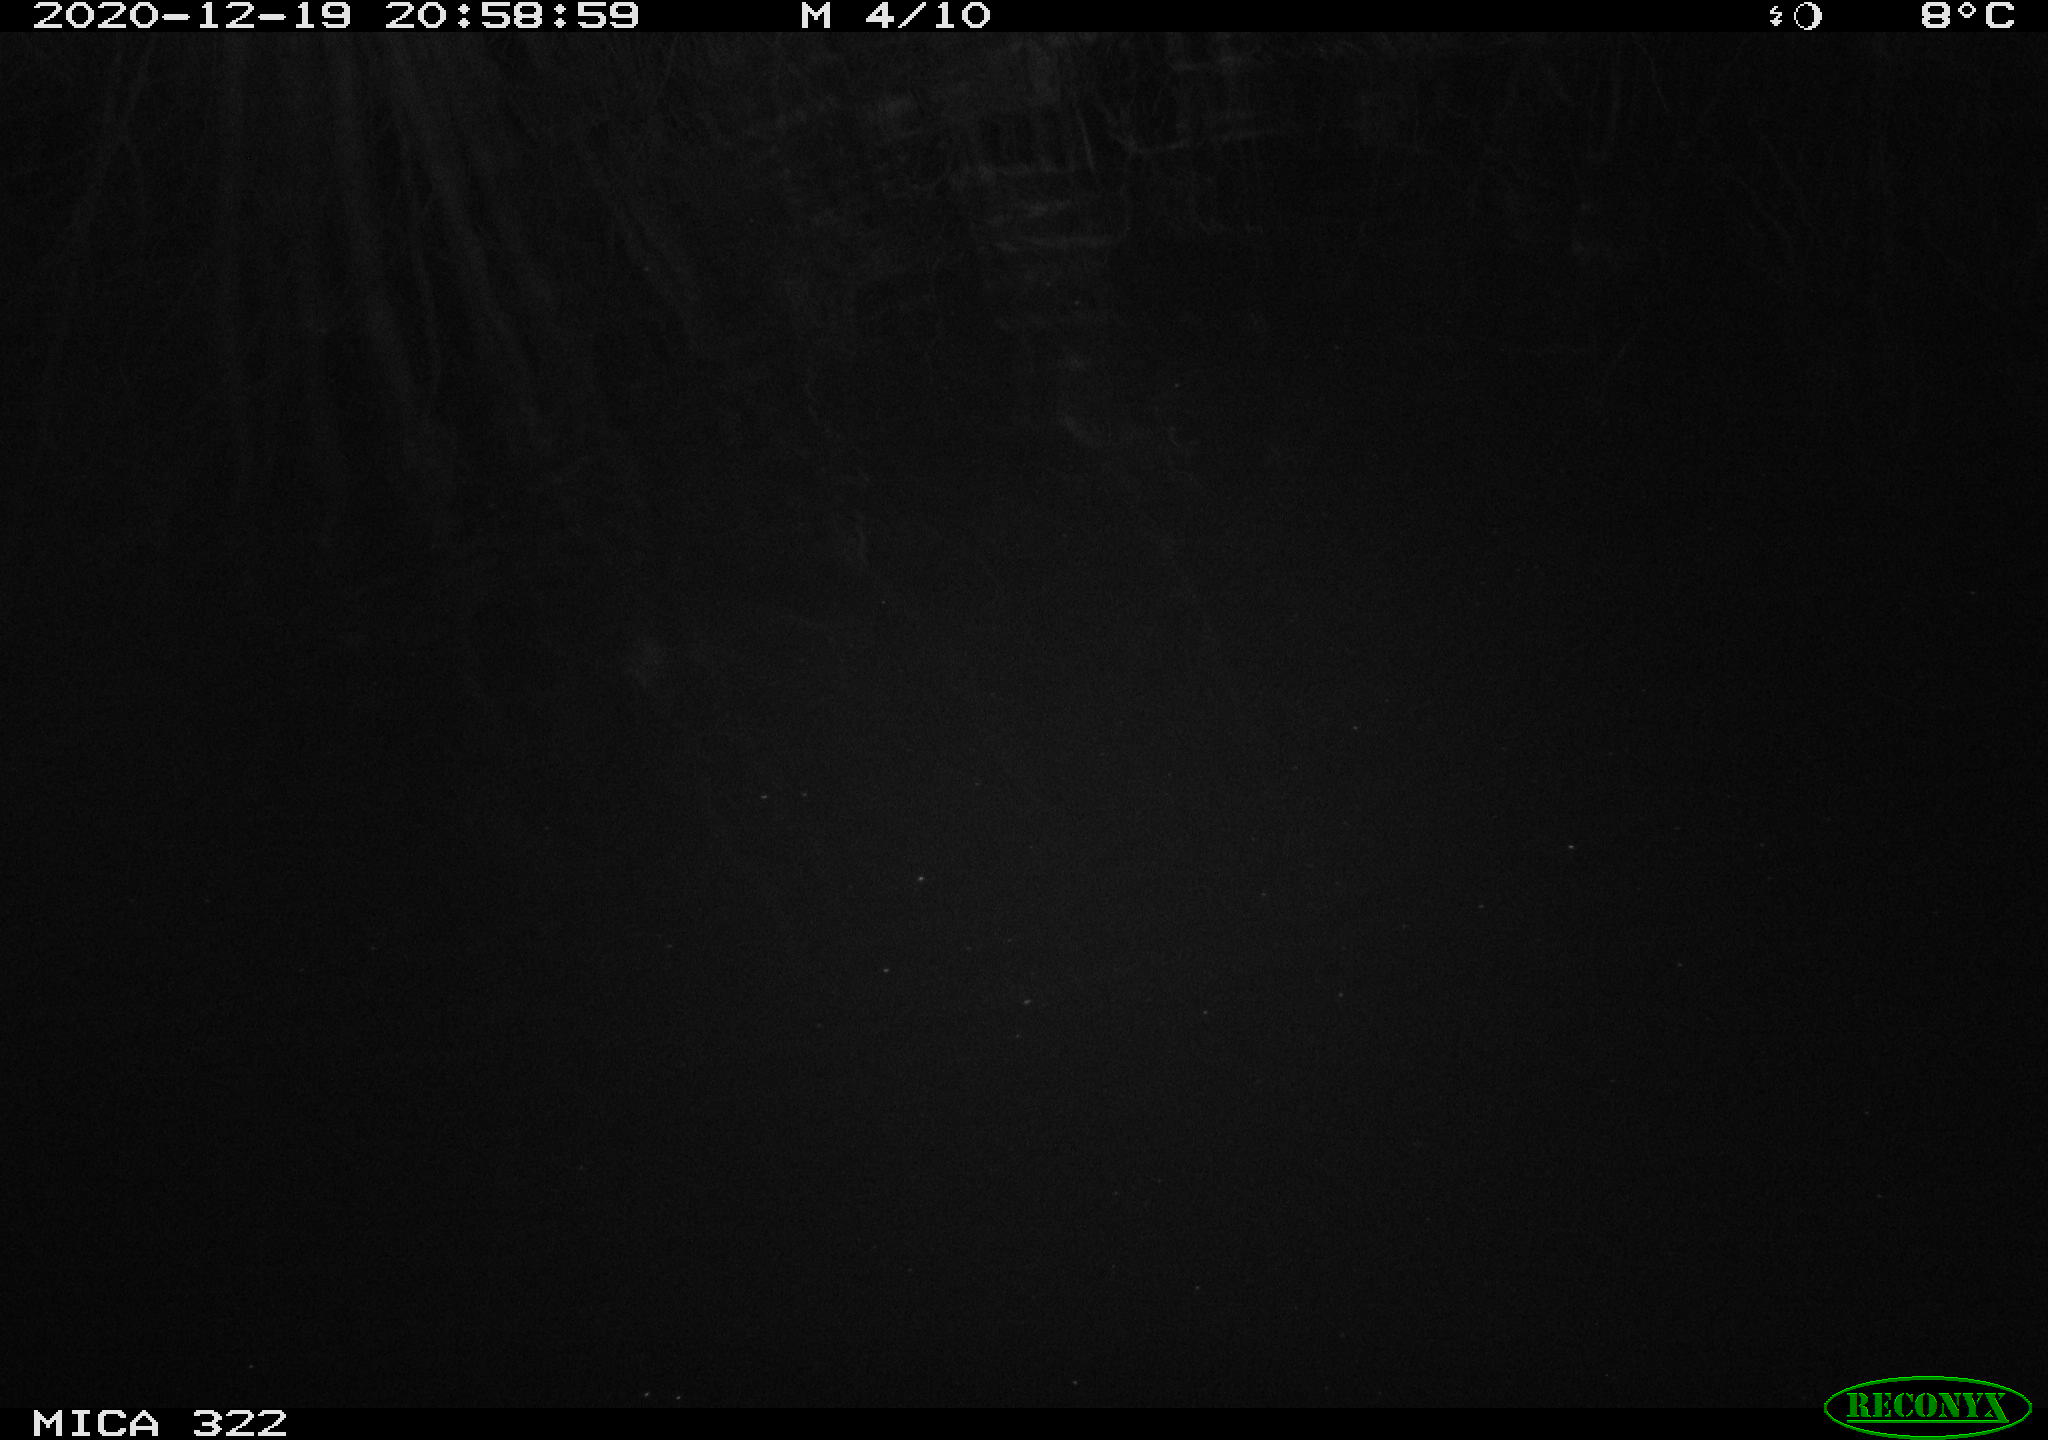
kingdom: Animalia
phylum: Chordata
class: Mammalia
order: Rodentia
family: Muridae
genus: Rattus
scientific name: Rattus norvegicus
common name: Brown rat
